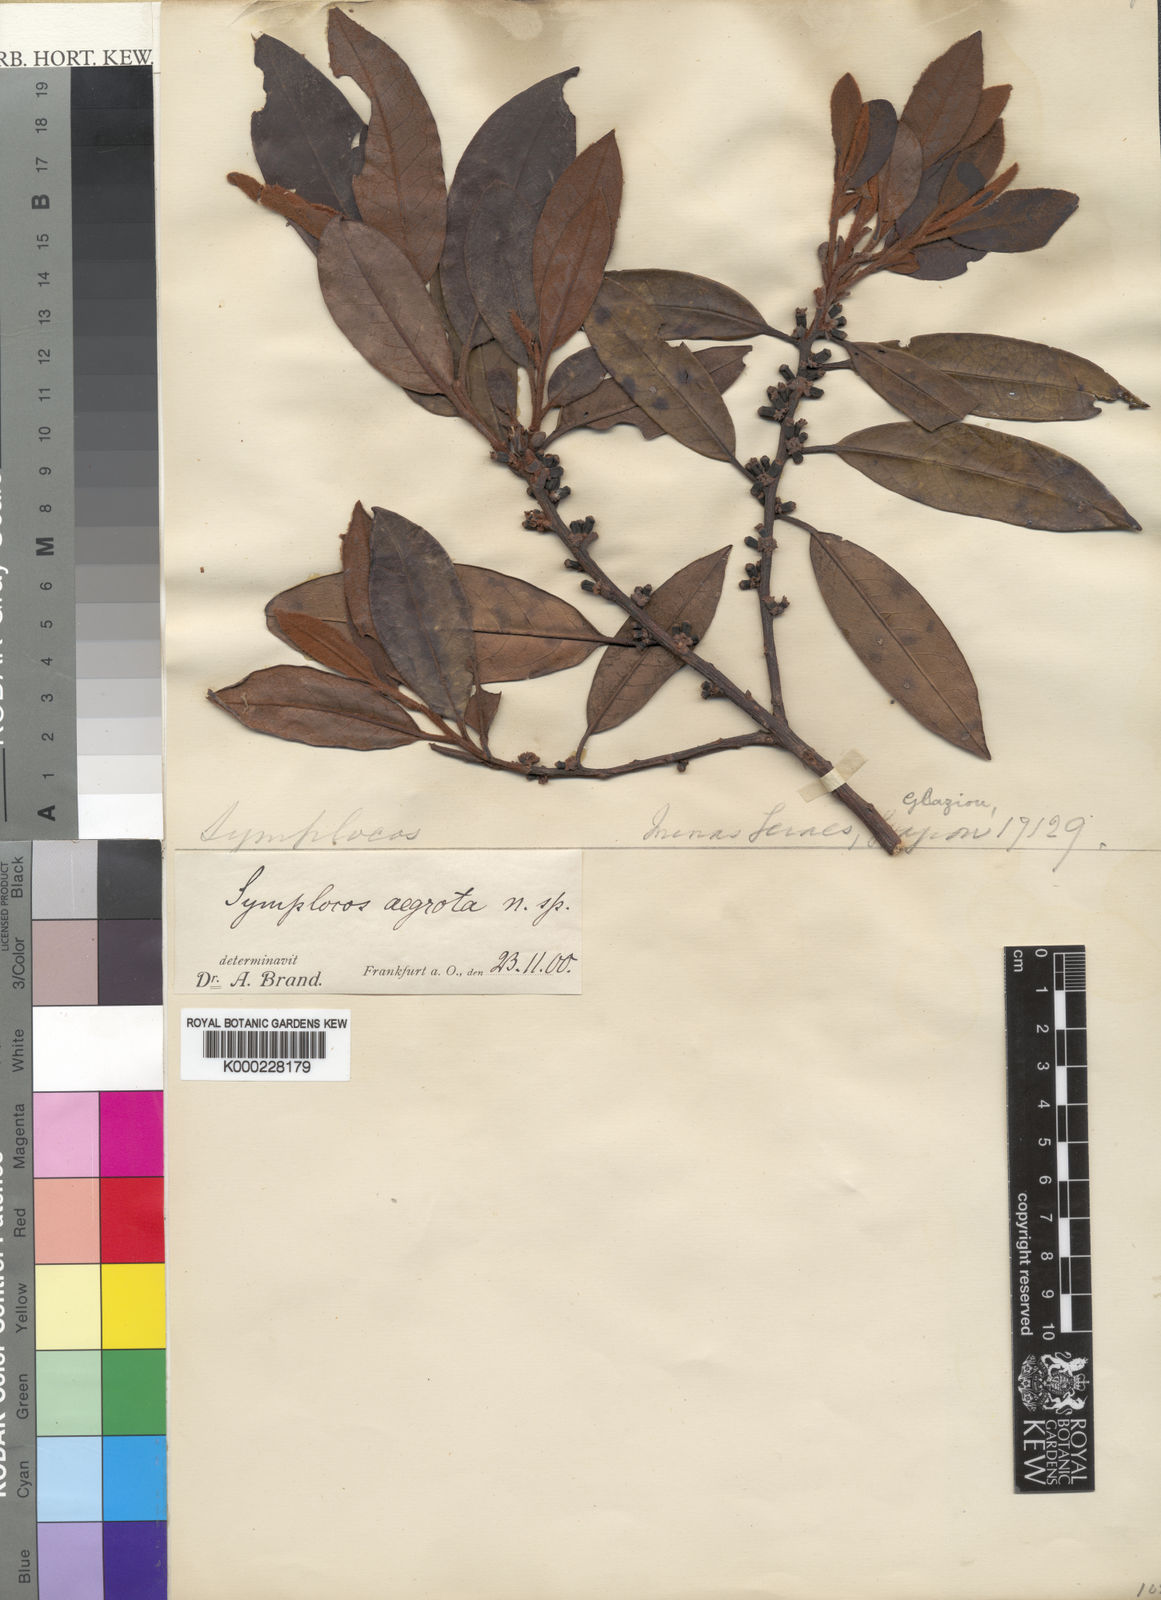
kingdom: Plantae
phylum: Tracheophyta
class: Magnoliopsida
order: Ericales
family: Symplocaceae
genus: Symplocos
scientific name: Symplocos falcata
